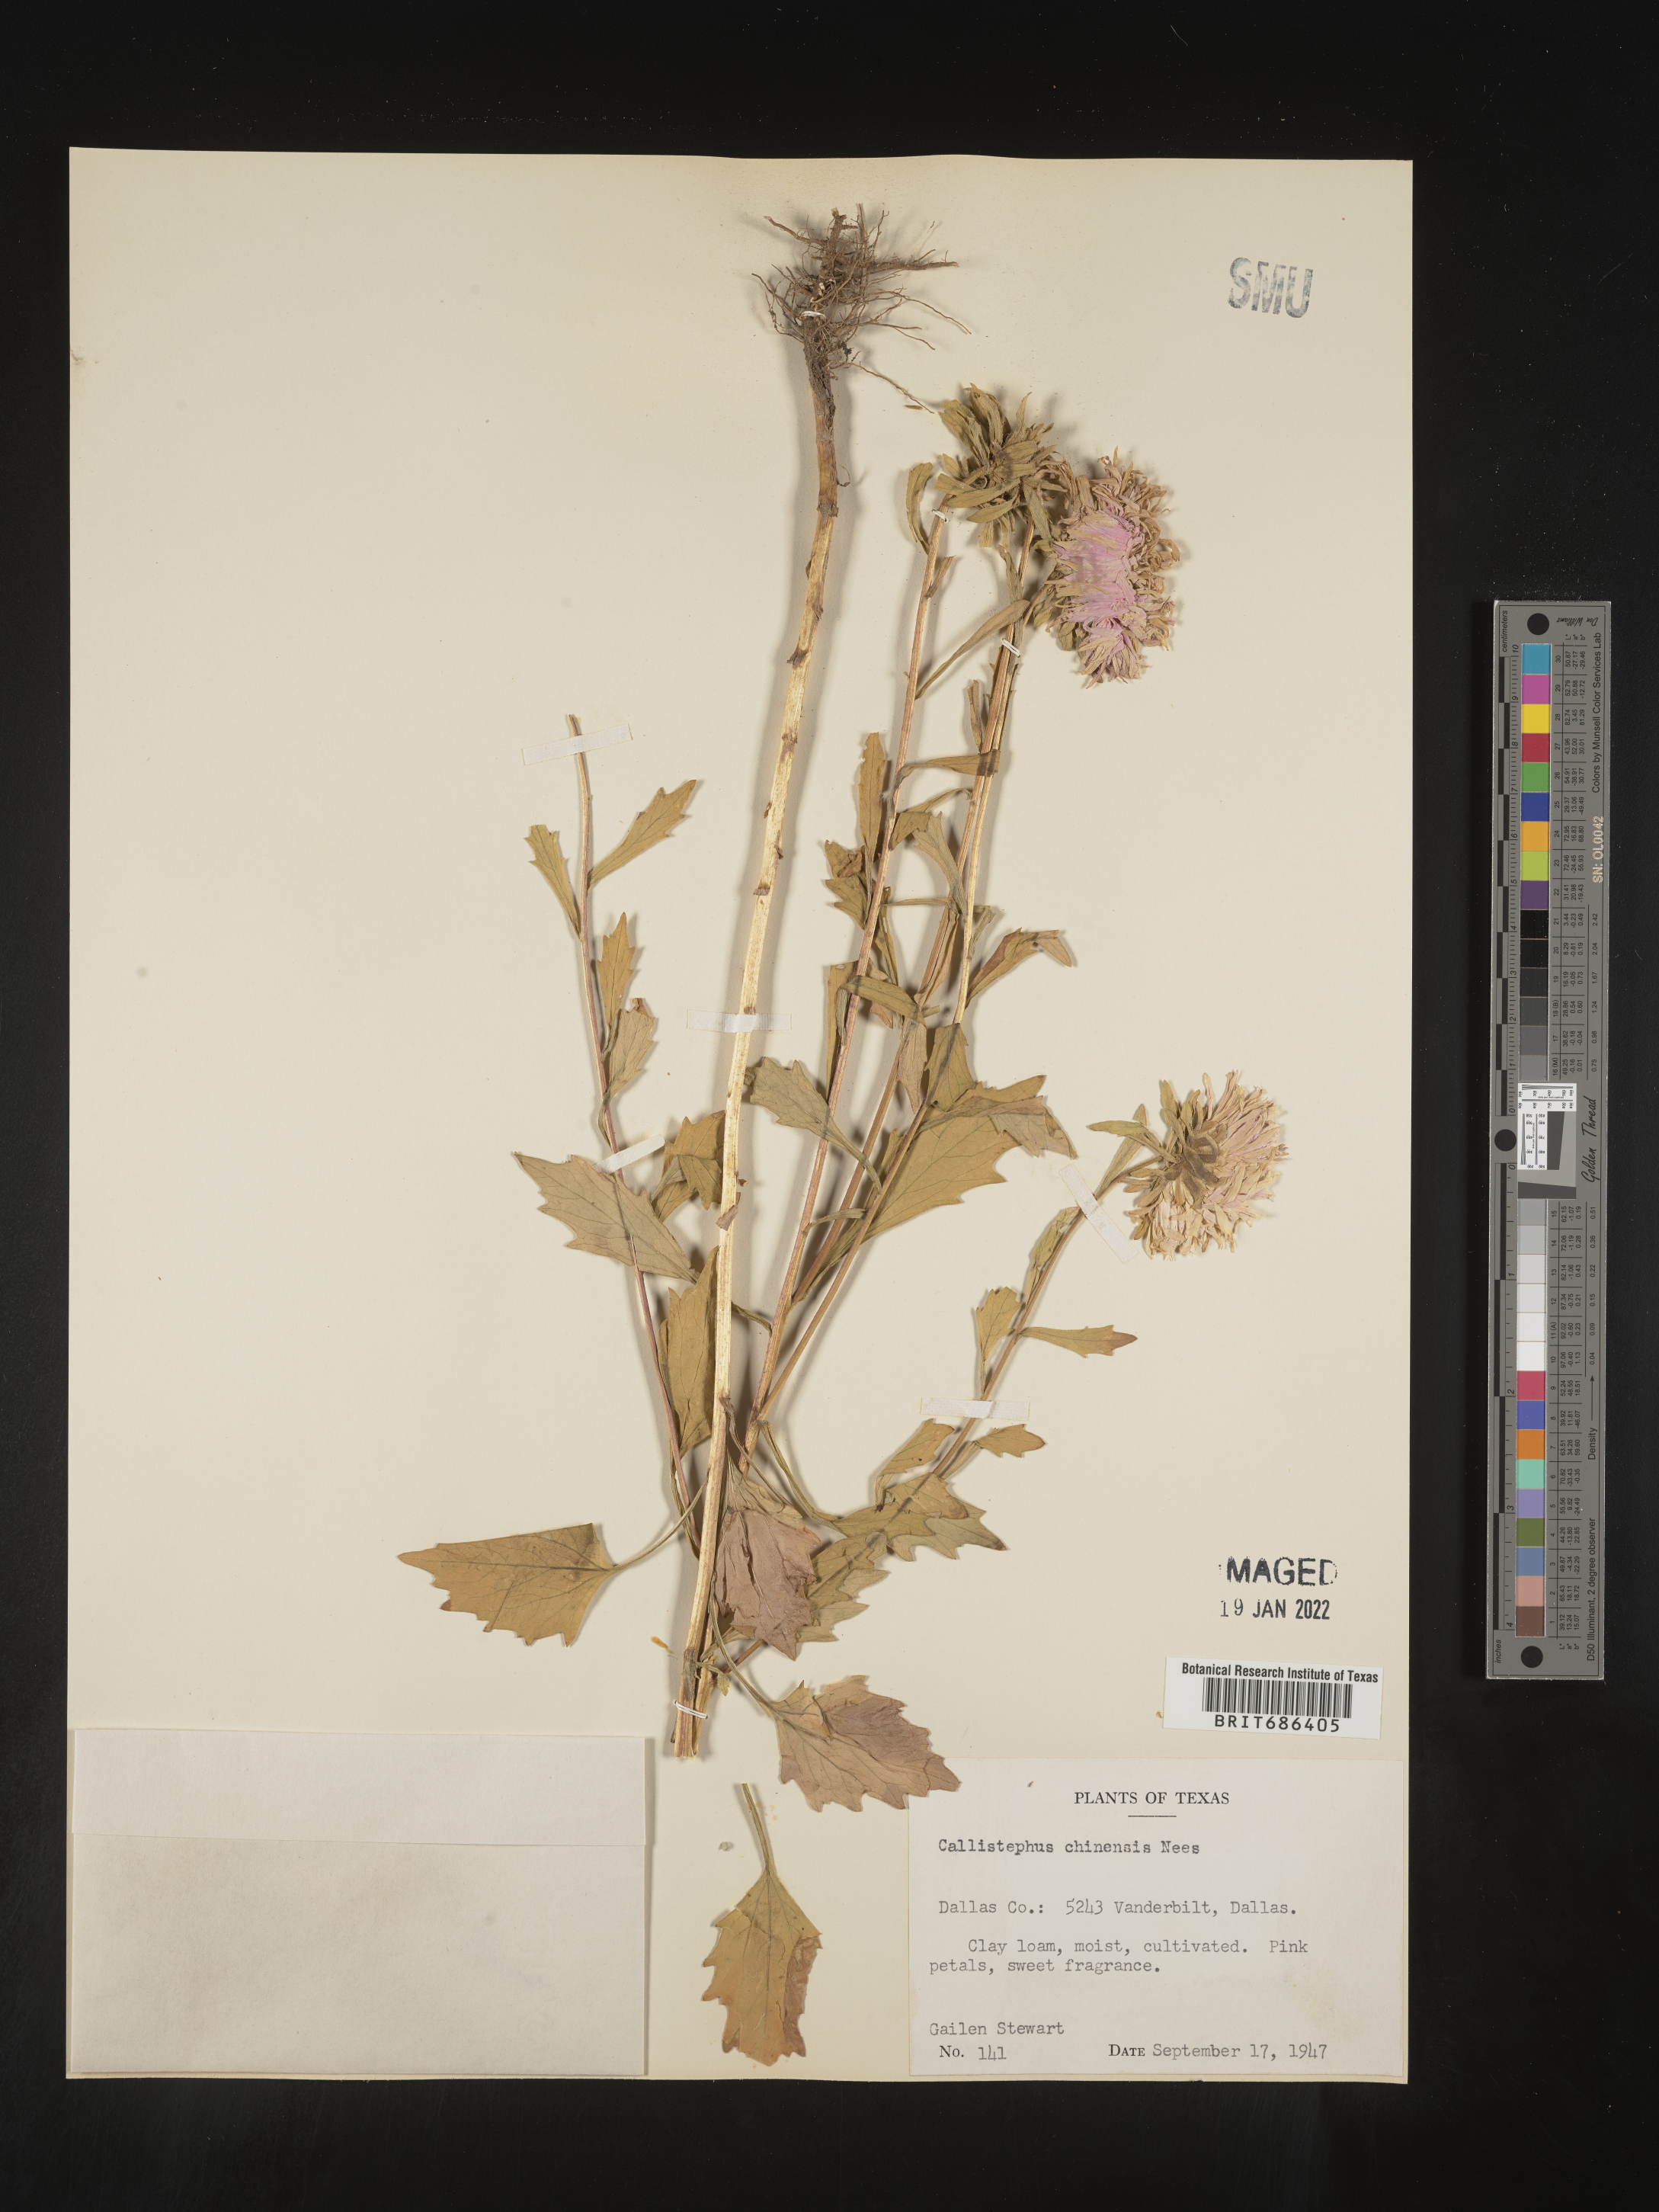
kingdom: Plantae
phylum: Tracheophyta
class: Magnoliopsida
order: Asterales
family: Asteraceae
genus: Callistephus
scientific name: Callistephus
